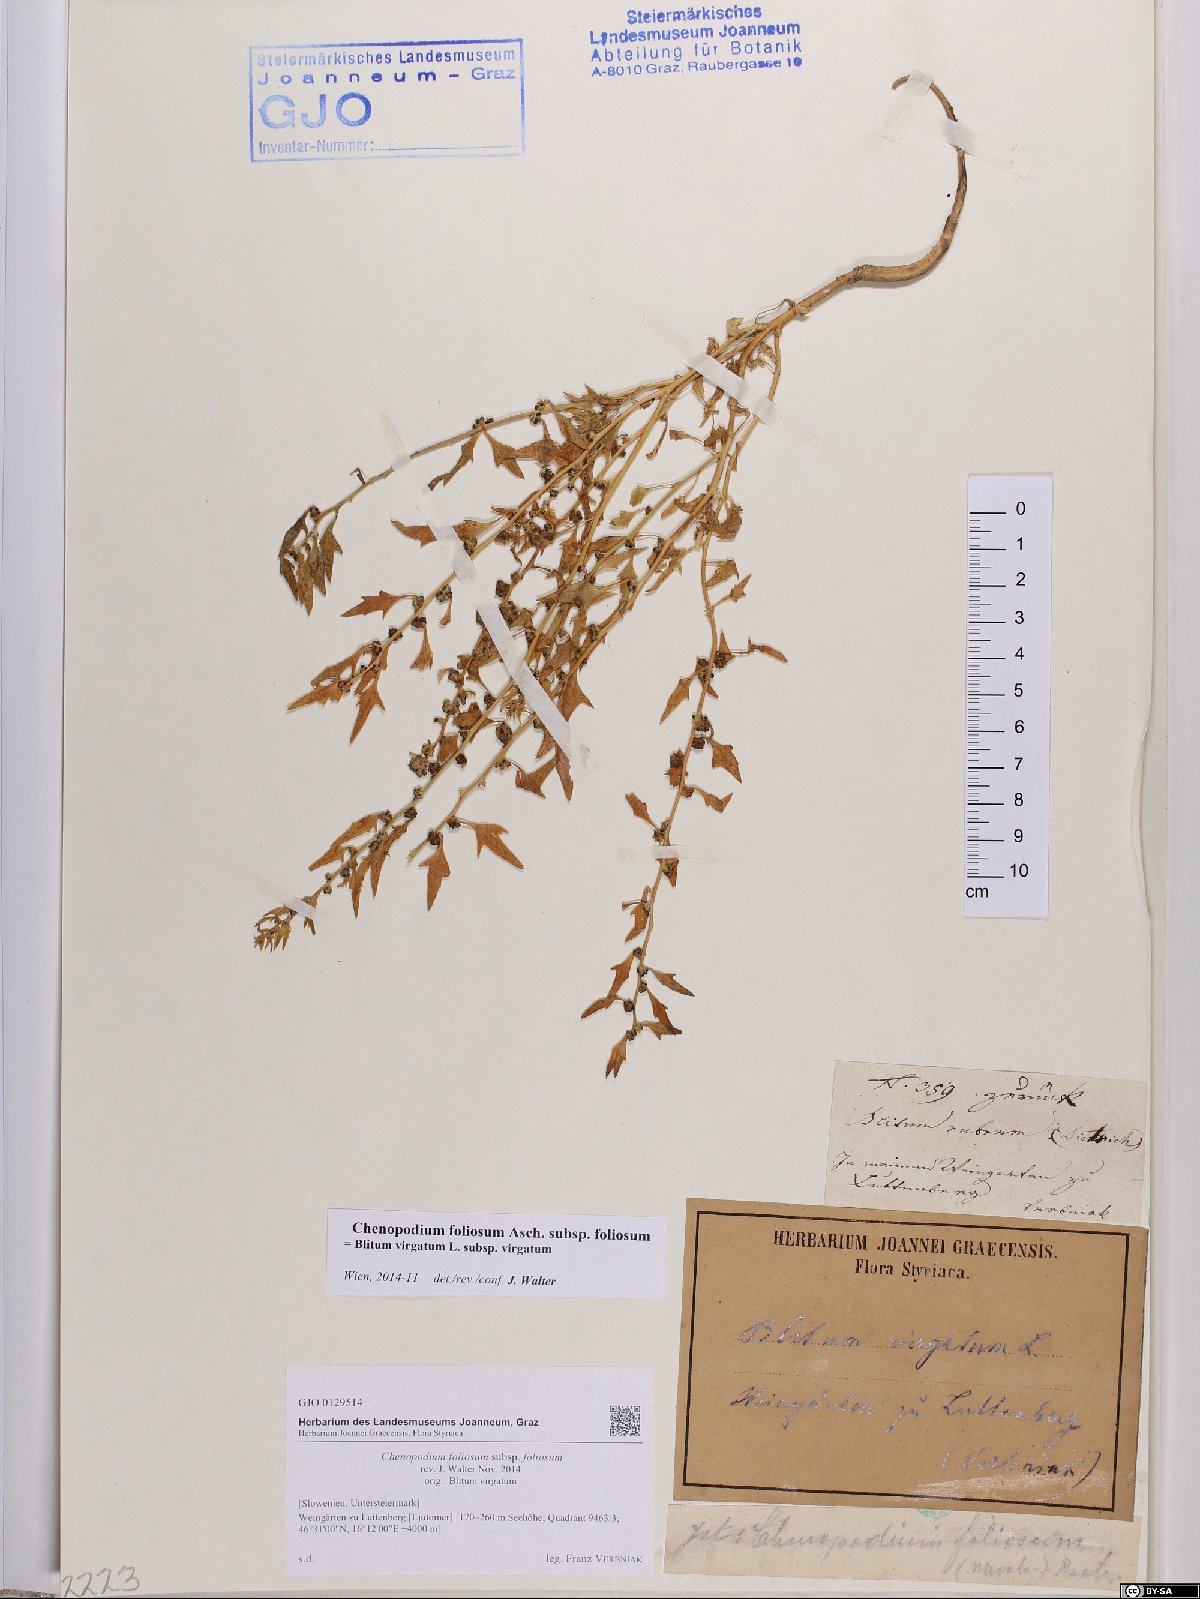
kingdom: Plantae
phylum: Tracheophyta
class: Magnoliopsida
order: Caryophyllales
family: Amaranthaceae
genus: Blitum
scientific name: Blitum virgatum
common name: Strawberry goosefoot
